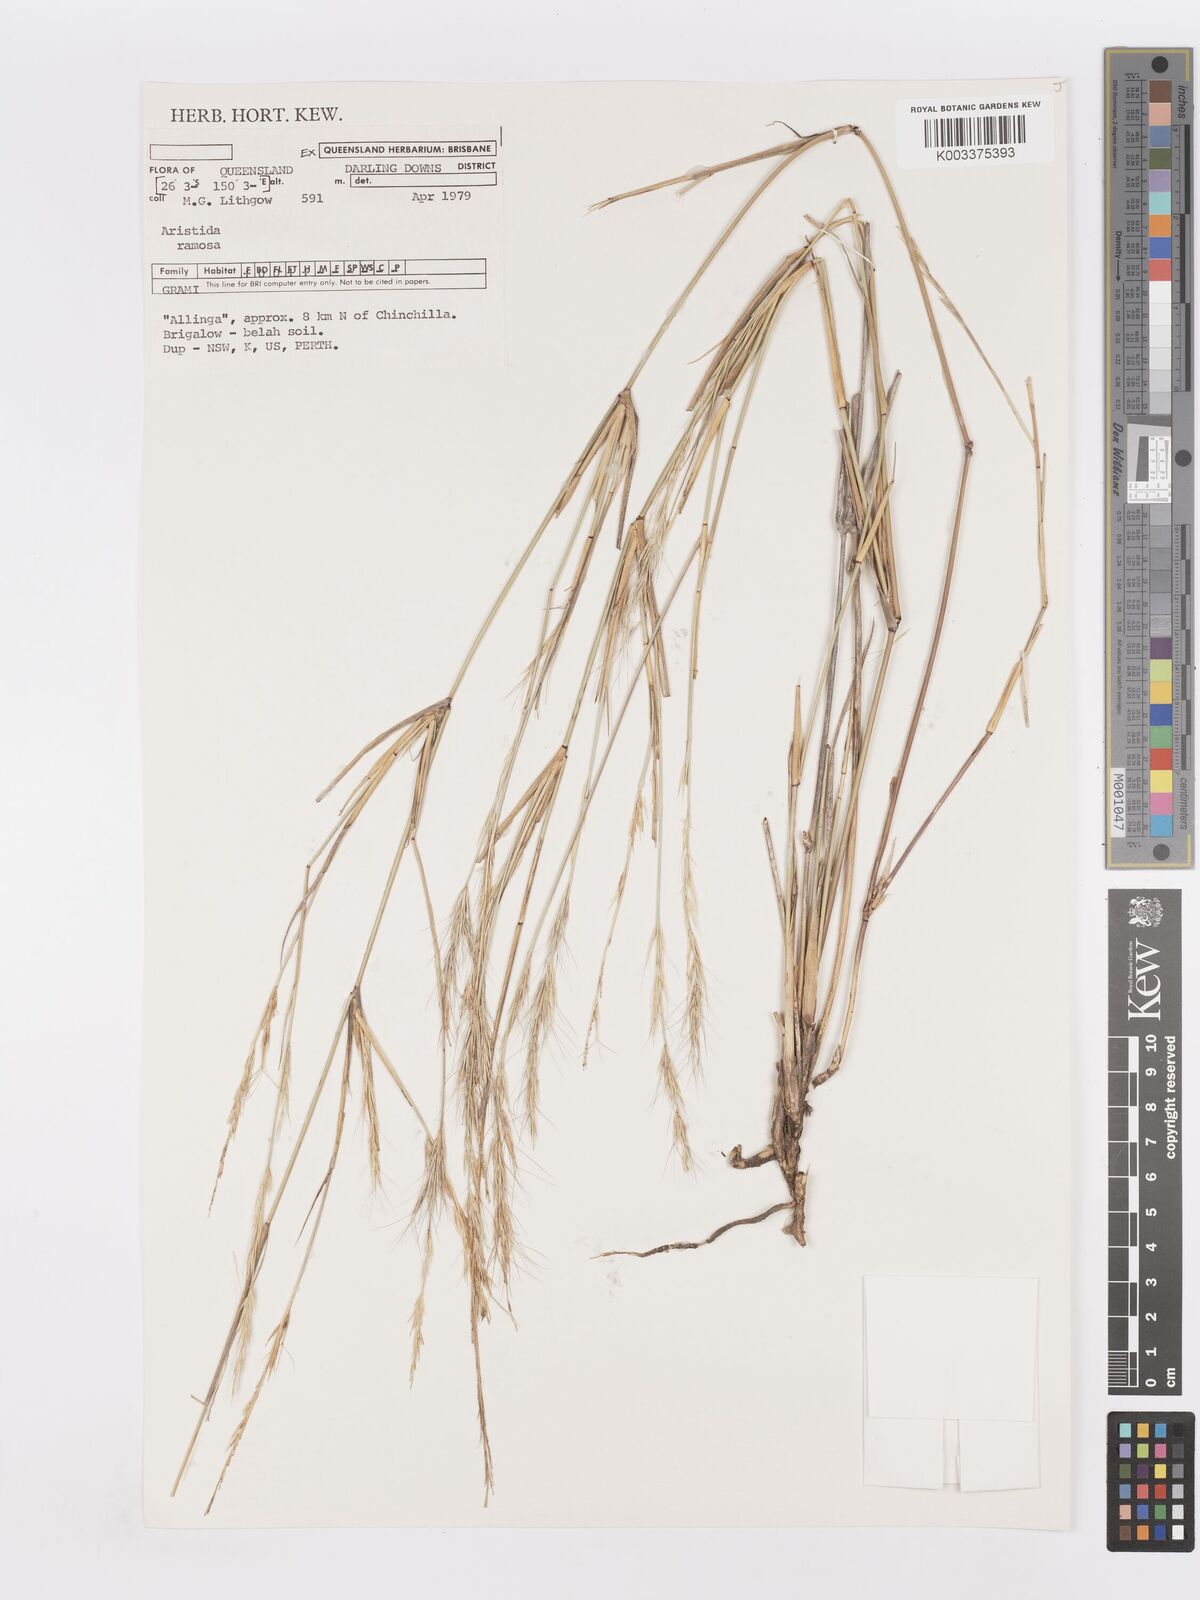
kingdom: Plantae
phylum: Tracheophyta
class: Liliopsida
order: Poales
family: Poaceae
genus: Aristida
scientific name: Aristida ramosa
